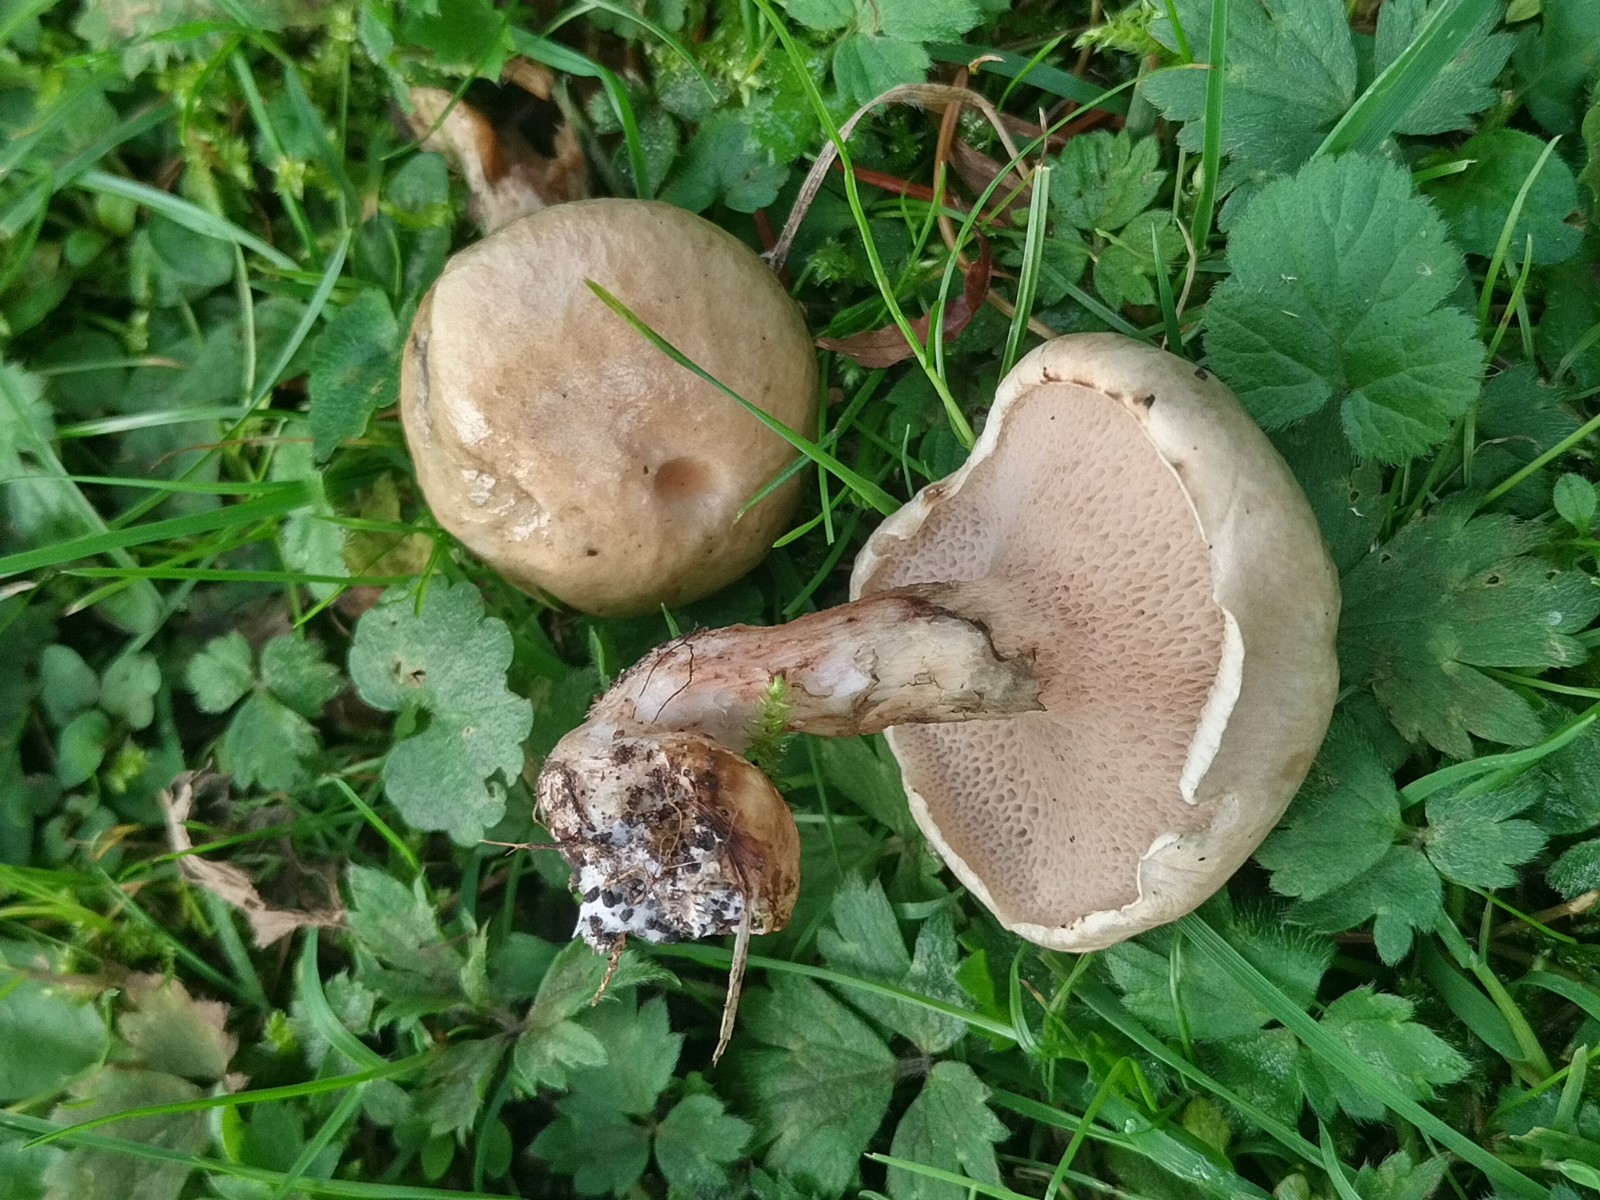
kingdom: Fungi
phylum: Basidiomycota
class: Agaricomycetes
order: Boletales
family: Suillaceae
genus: Suillus
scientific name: Suillus viscidus
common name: olivengrå slimrørhat
